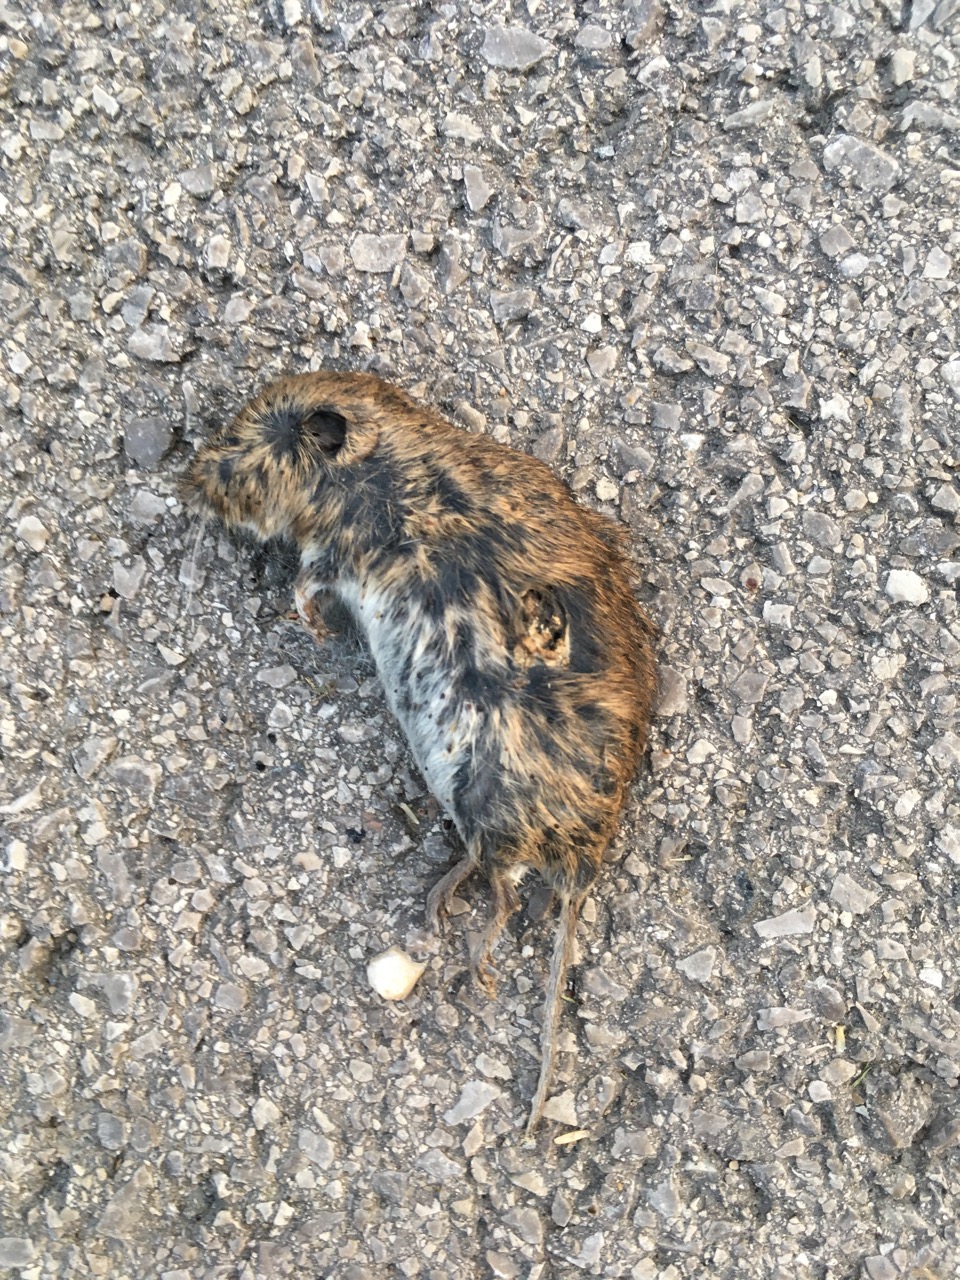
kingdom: Animalia
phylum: Chordata
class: Mammalia
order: Rodentia
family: Cricetidae
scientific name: Cricetidae
